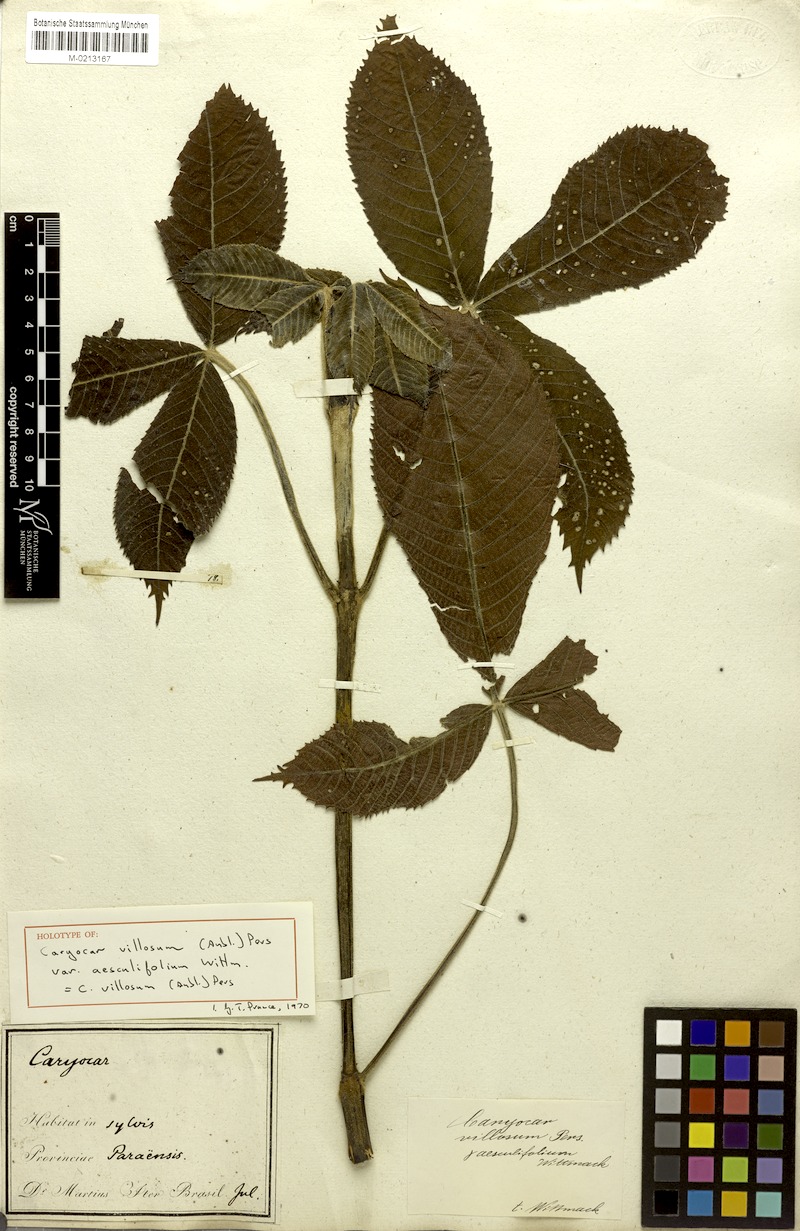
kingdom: Plantae
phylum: Tracheophyta
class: Magnoliopsida
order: Malpighiales
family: Caryocaraceae
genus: Caryocar
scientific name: Caryocar villosum
